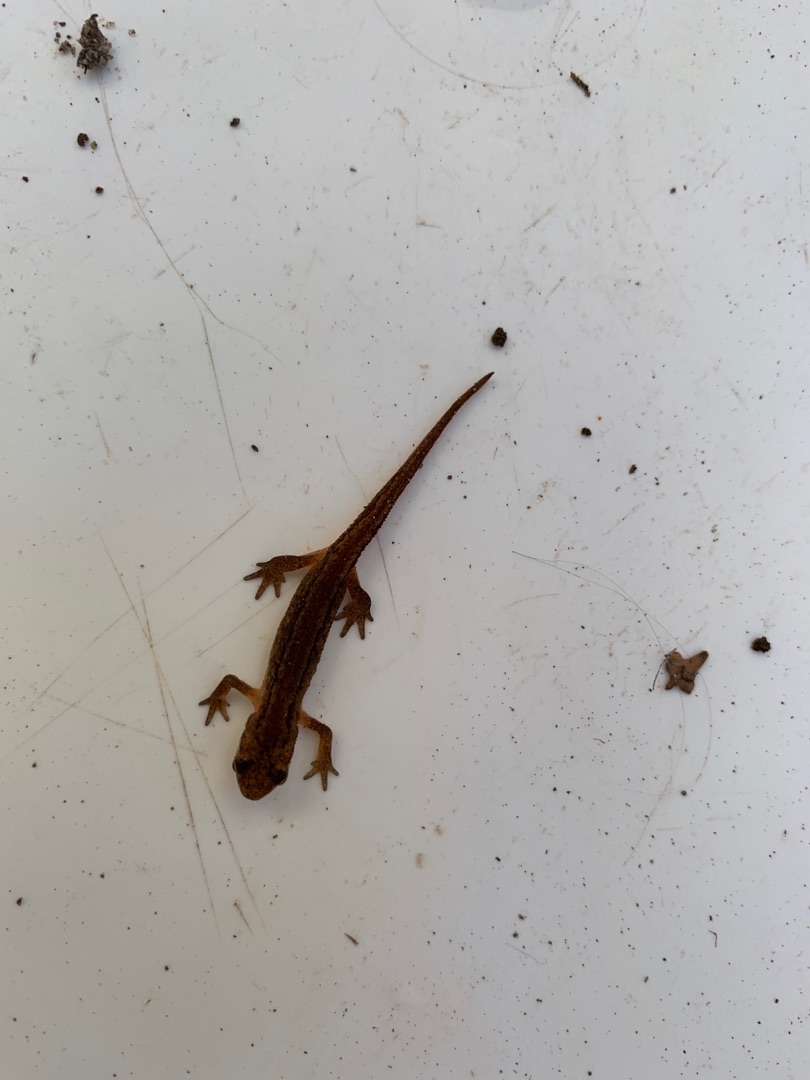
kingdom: Animalia
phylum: Chordata
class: Amphibia
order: Caudata
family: Salamandridae
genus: Lissotriton
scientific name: Lissotriton vulgaris
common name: Lille vandsalamander
